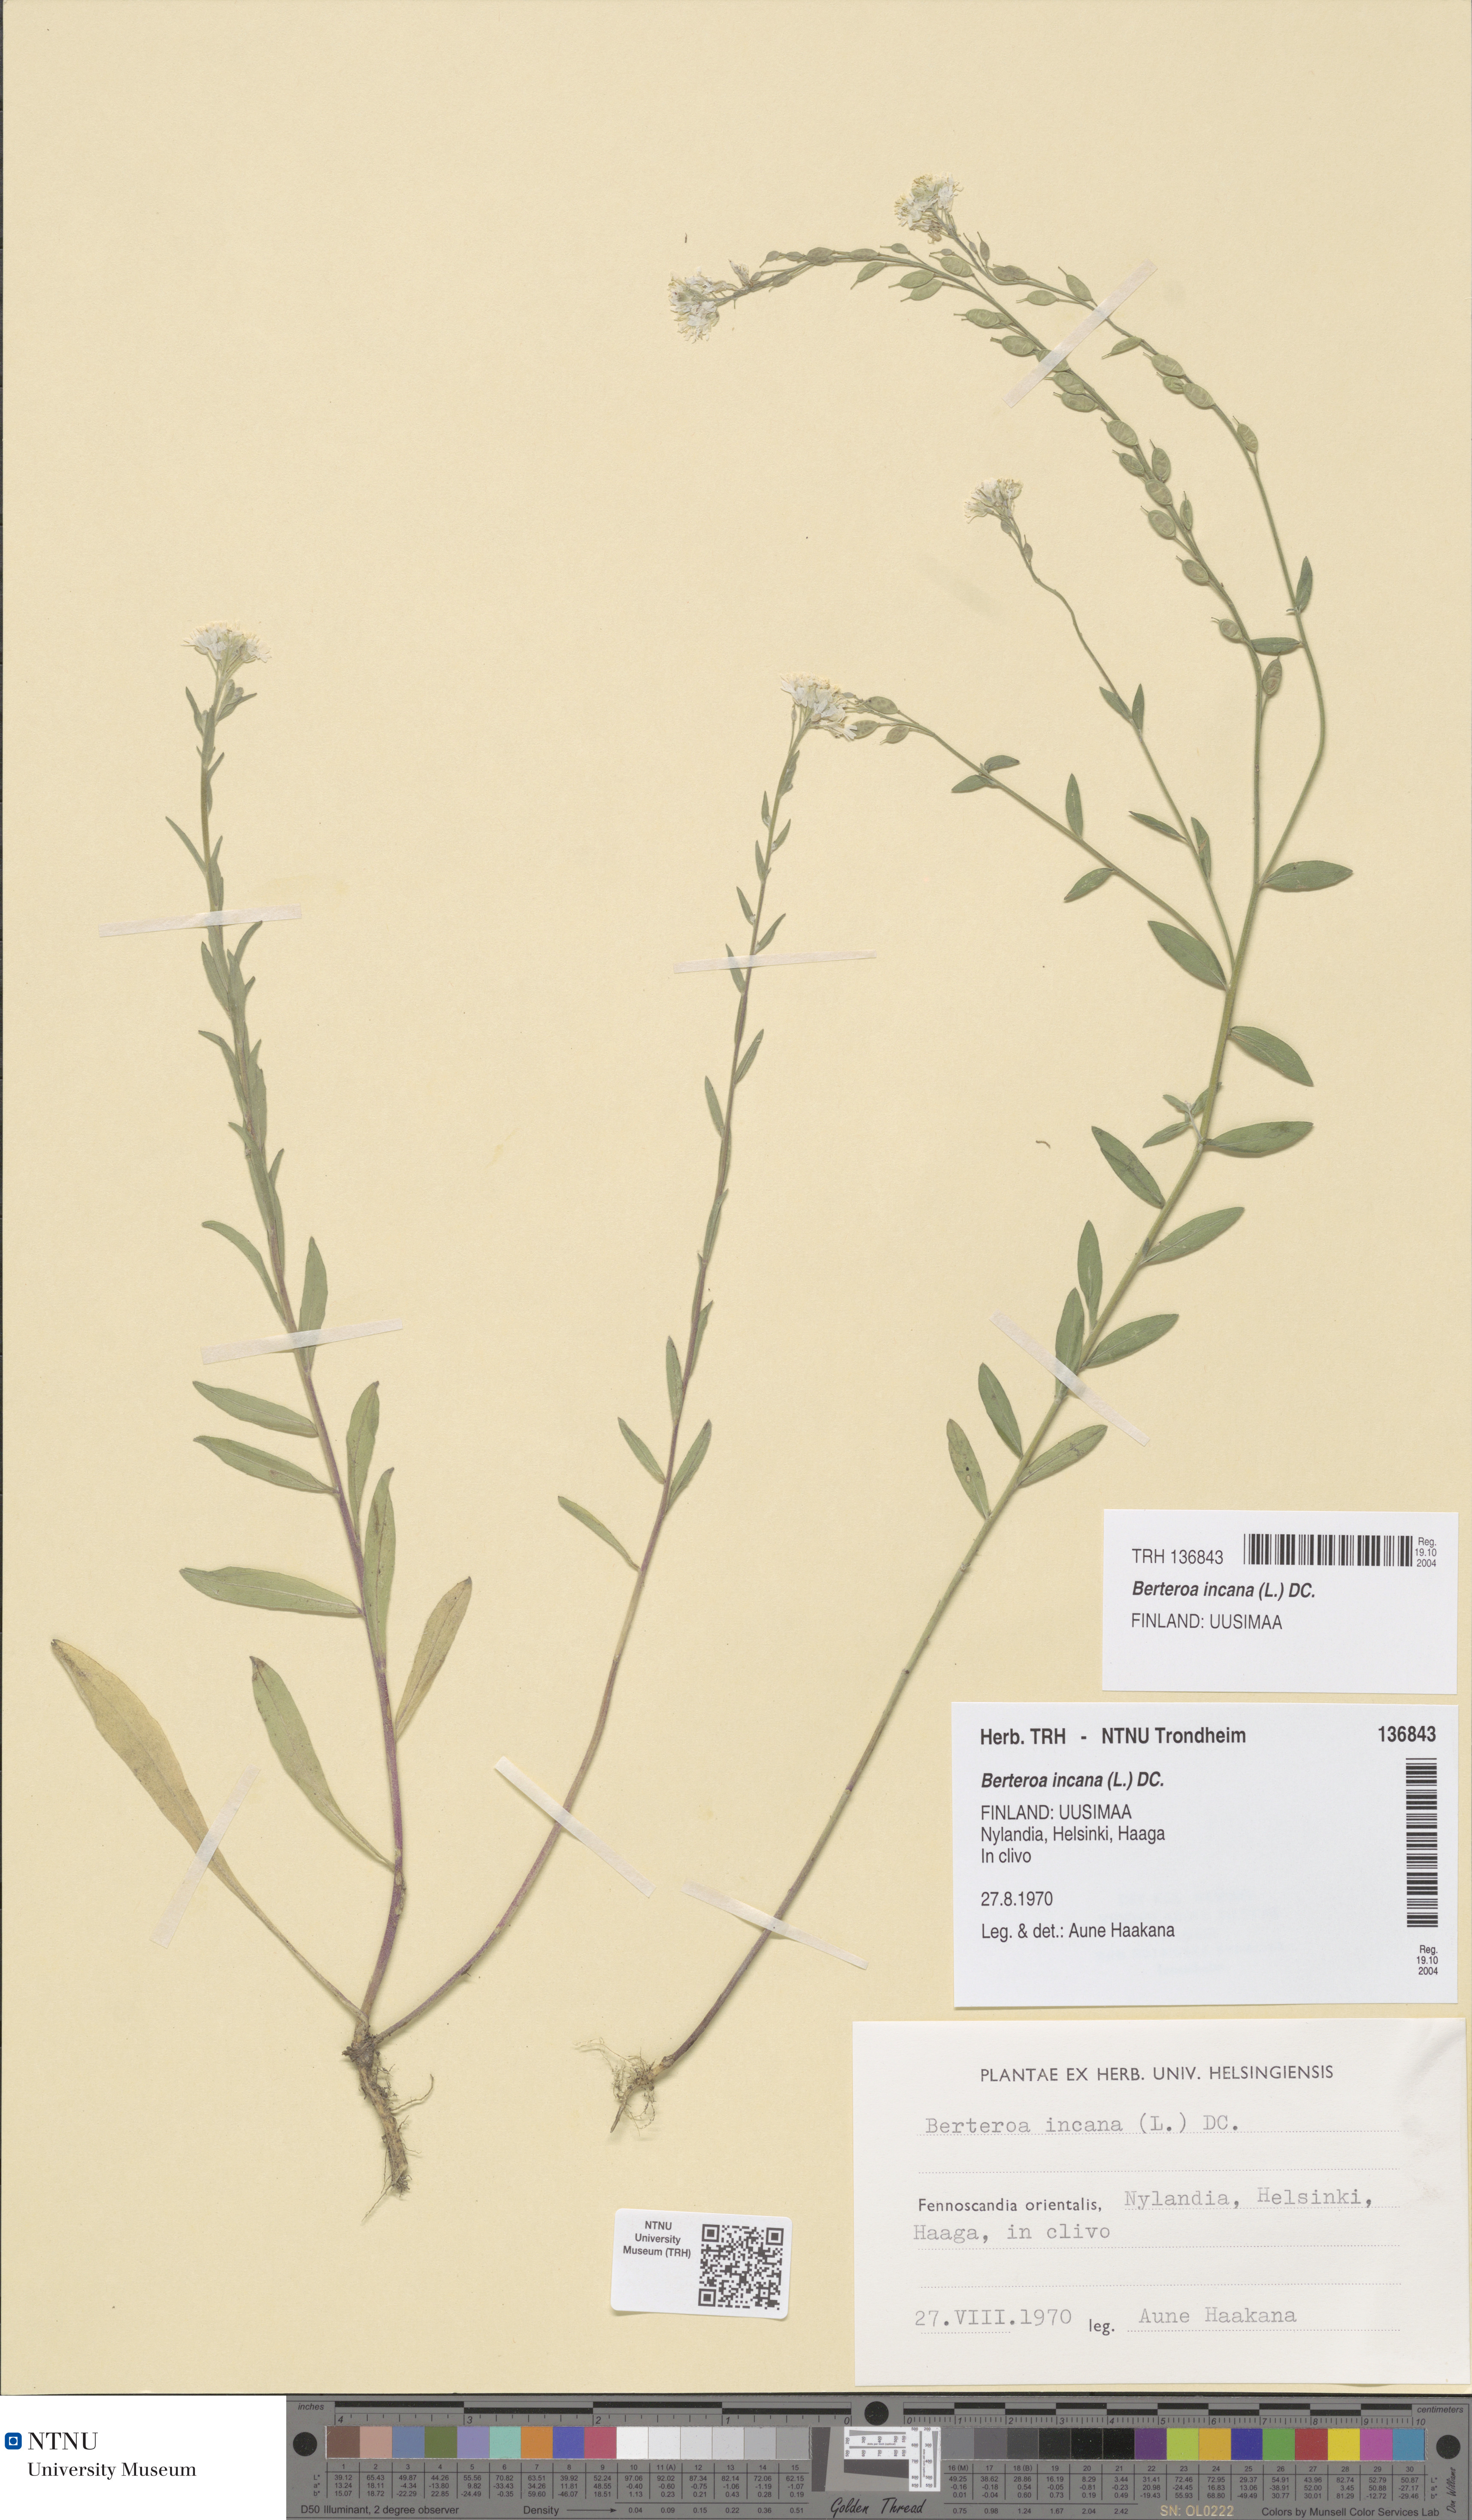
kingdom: Plantae
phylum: Tracheophyta
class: Magnoliopsida
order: Brassicales
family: Brassicaceae
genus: Berteroa
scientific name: Berteroa incana
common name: Hoary alison
